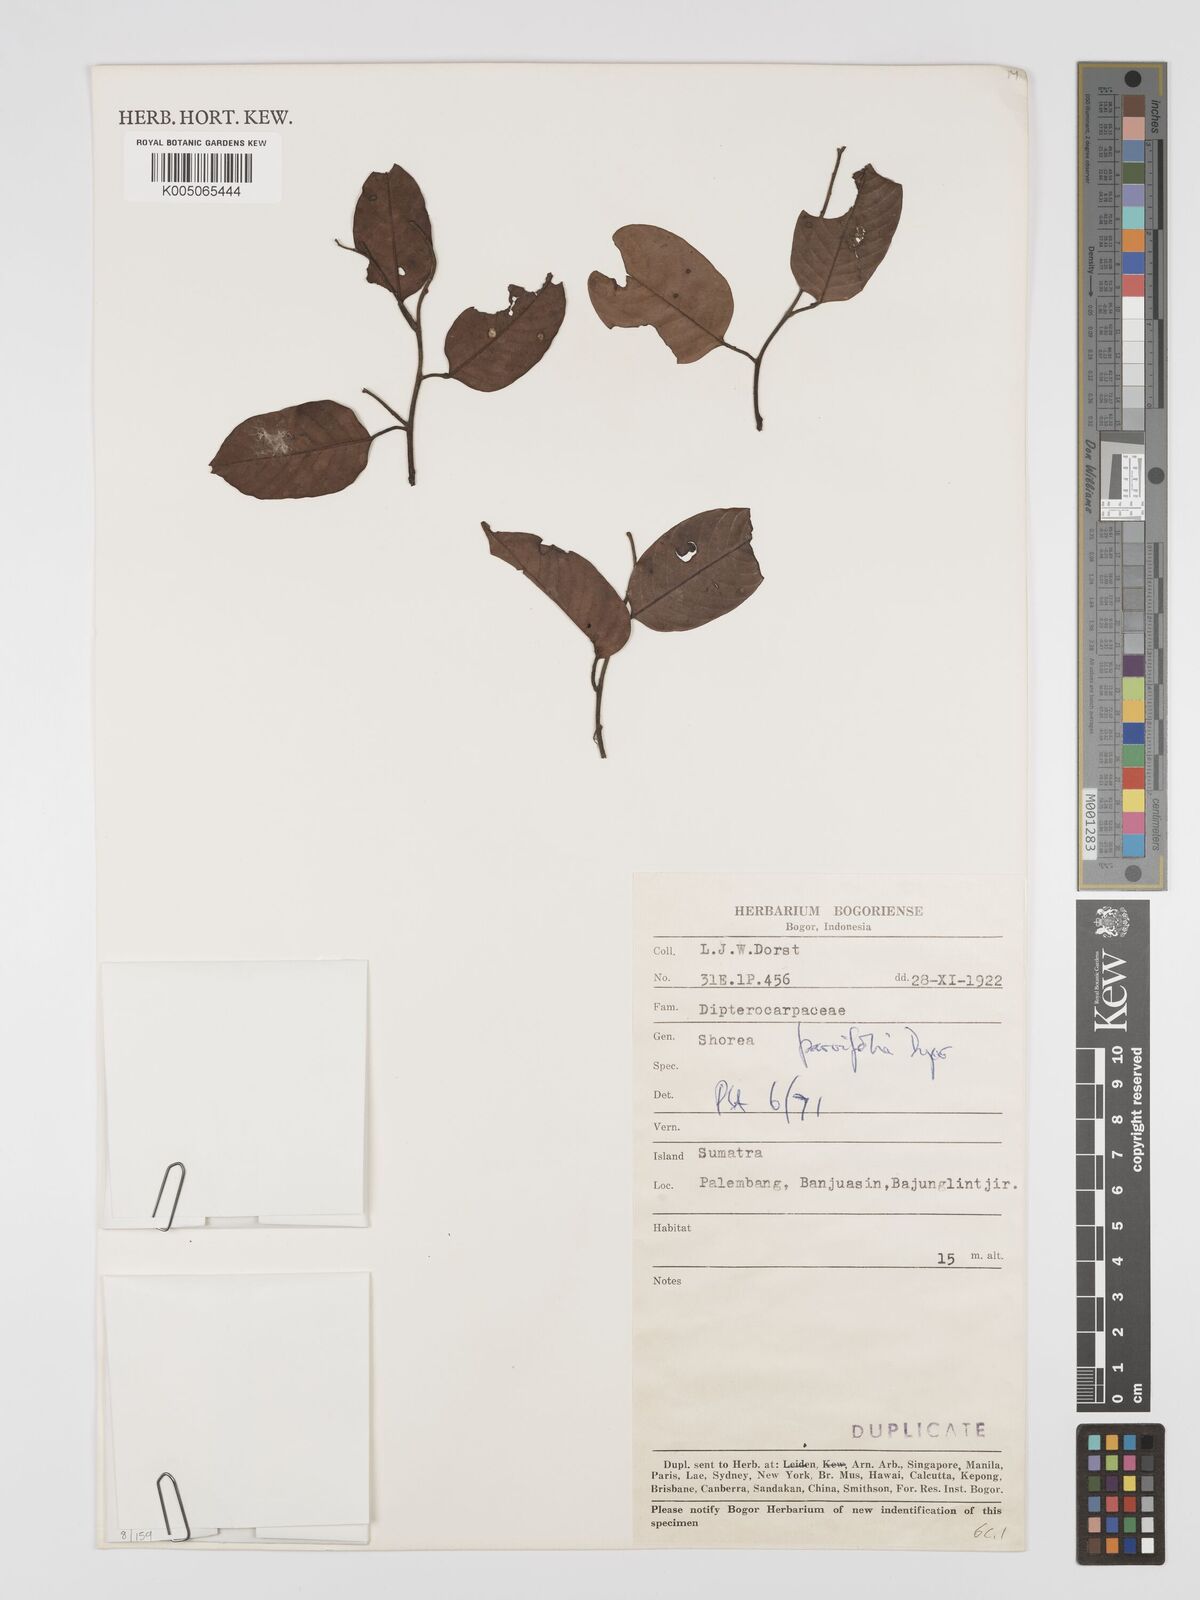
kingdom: Plantae
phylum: Tracheophyta
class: Magnoliopsida
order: Malvales
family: Dipterocarpaceae
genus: Shorea
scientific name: Shorea parvifolia
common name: Light red meranti
